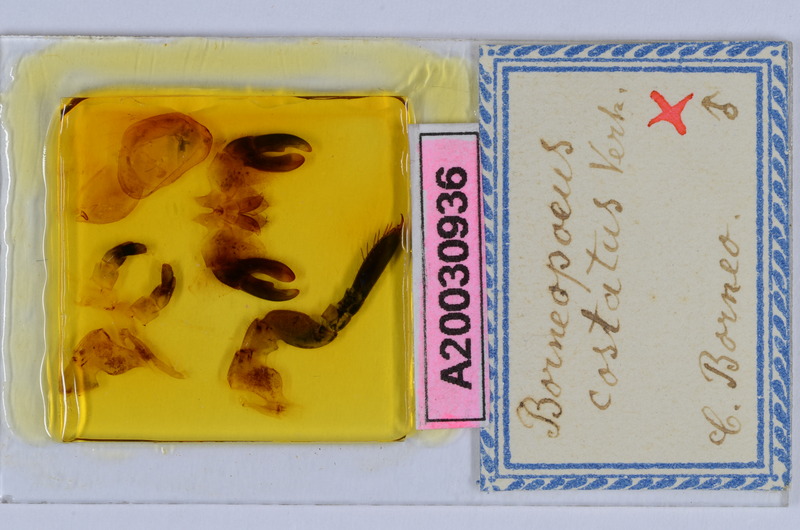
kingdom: Animalia
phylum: Arthropoda
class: Diplopoda
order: Sphaerotheriida
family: Zephroniidae
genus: Castanotherium
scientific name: Castanotherium costatum
